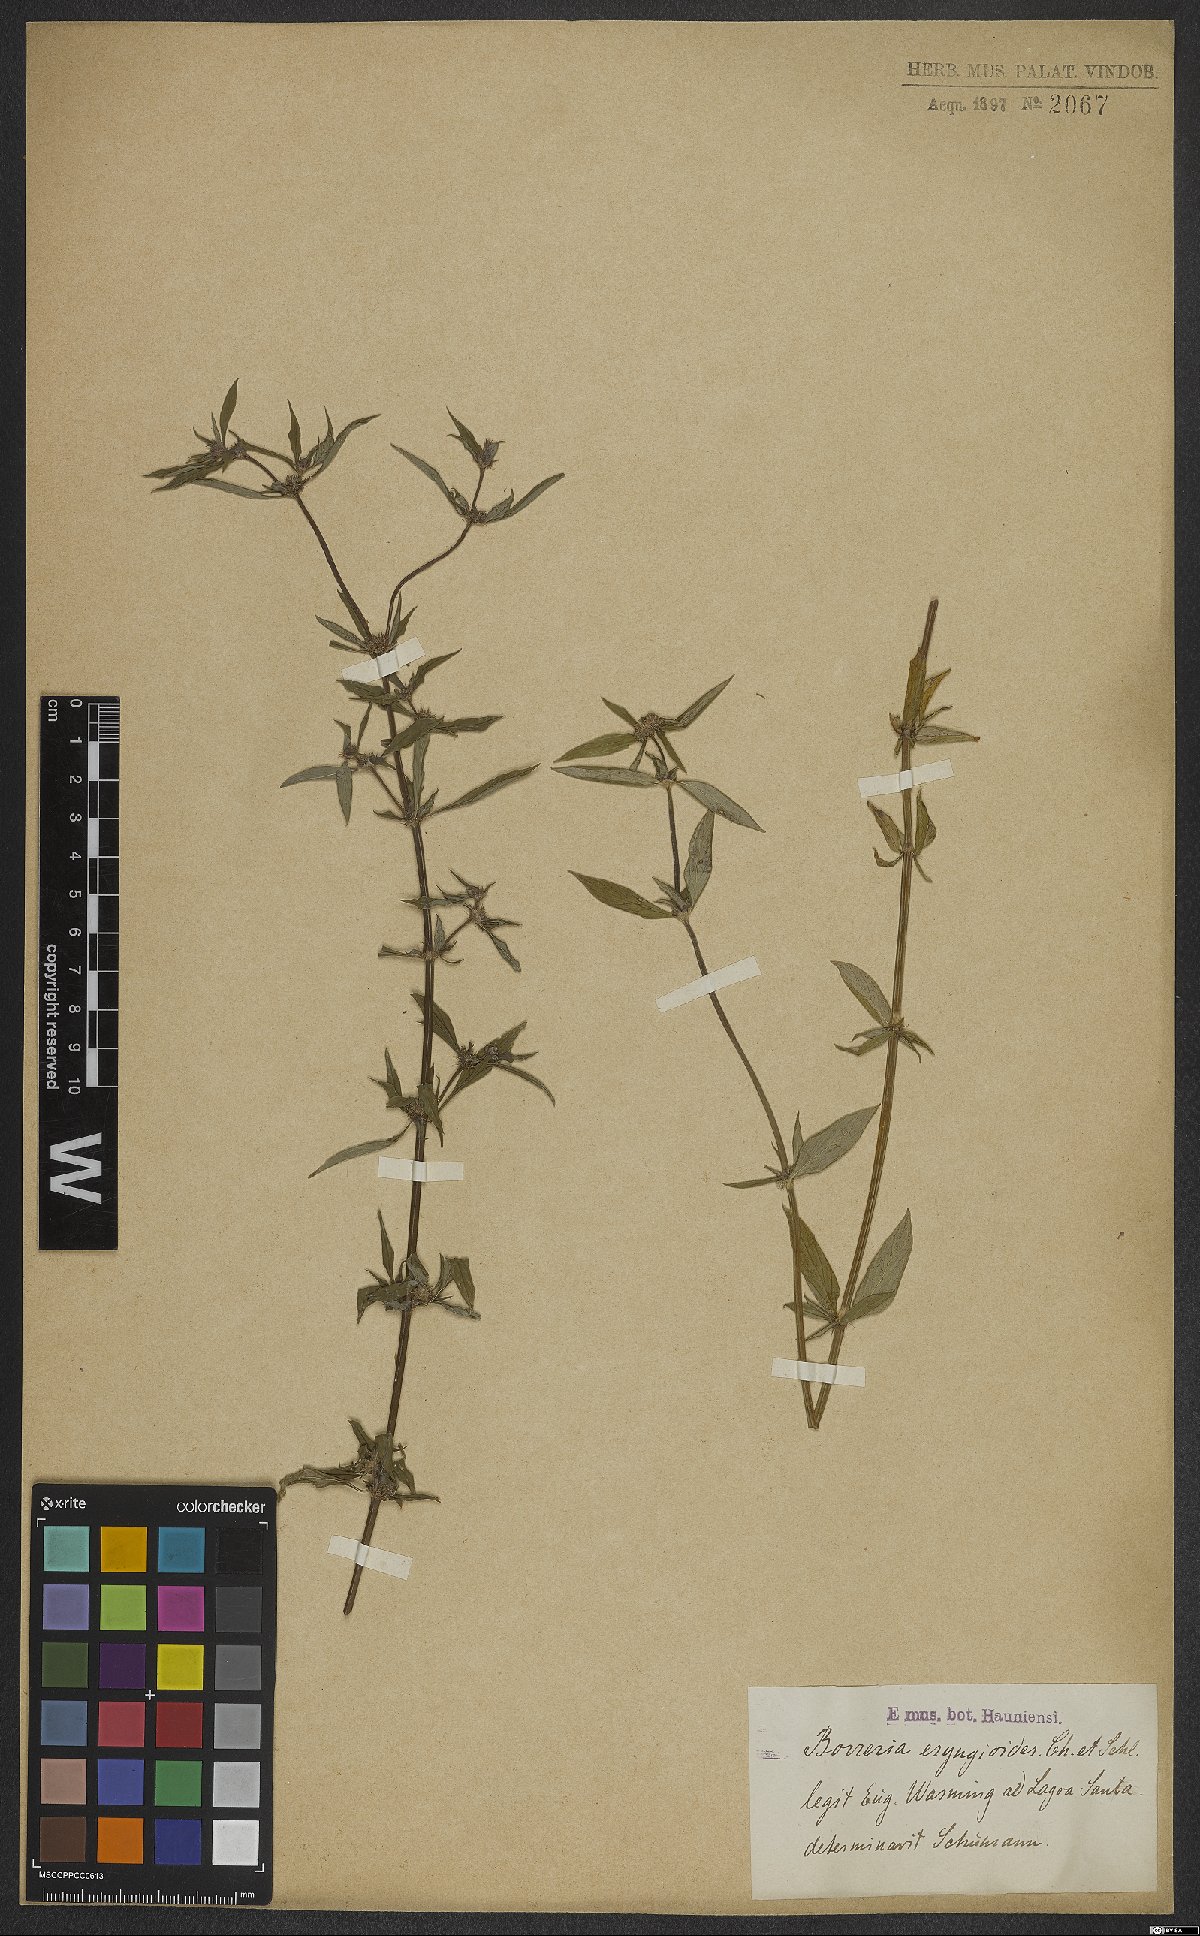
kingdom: Plantae
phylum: Tracheophyta
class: Magnoliopsida
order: Gentianales
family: Rubiaceae
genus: Spermacoce
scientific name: Spermacoce eryngioides
